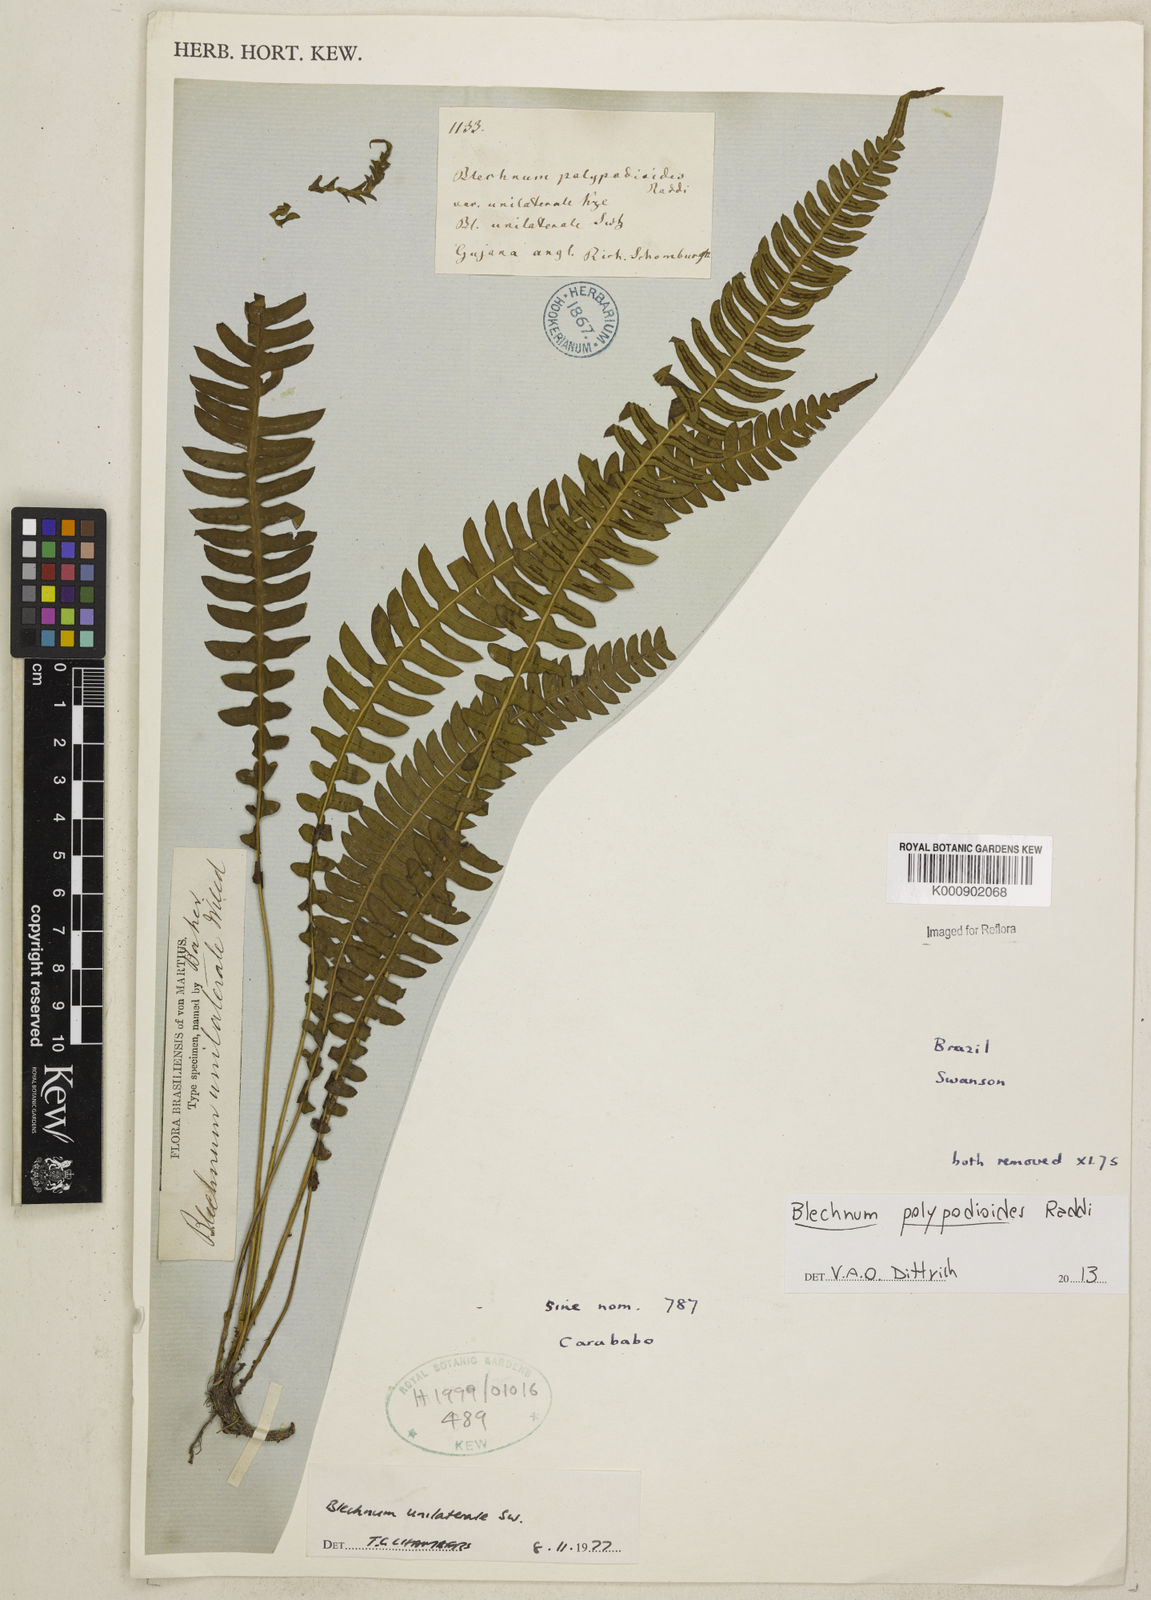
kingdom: Plantae
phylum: Tracheophyta
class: Polypodiopsida
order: Polypodiales
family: Blechnaceae
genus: Blechnum
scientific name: Blechnum polypodioides
